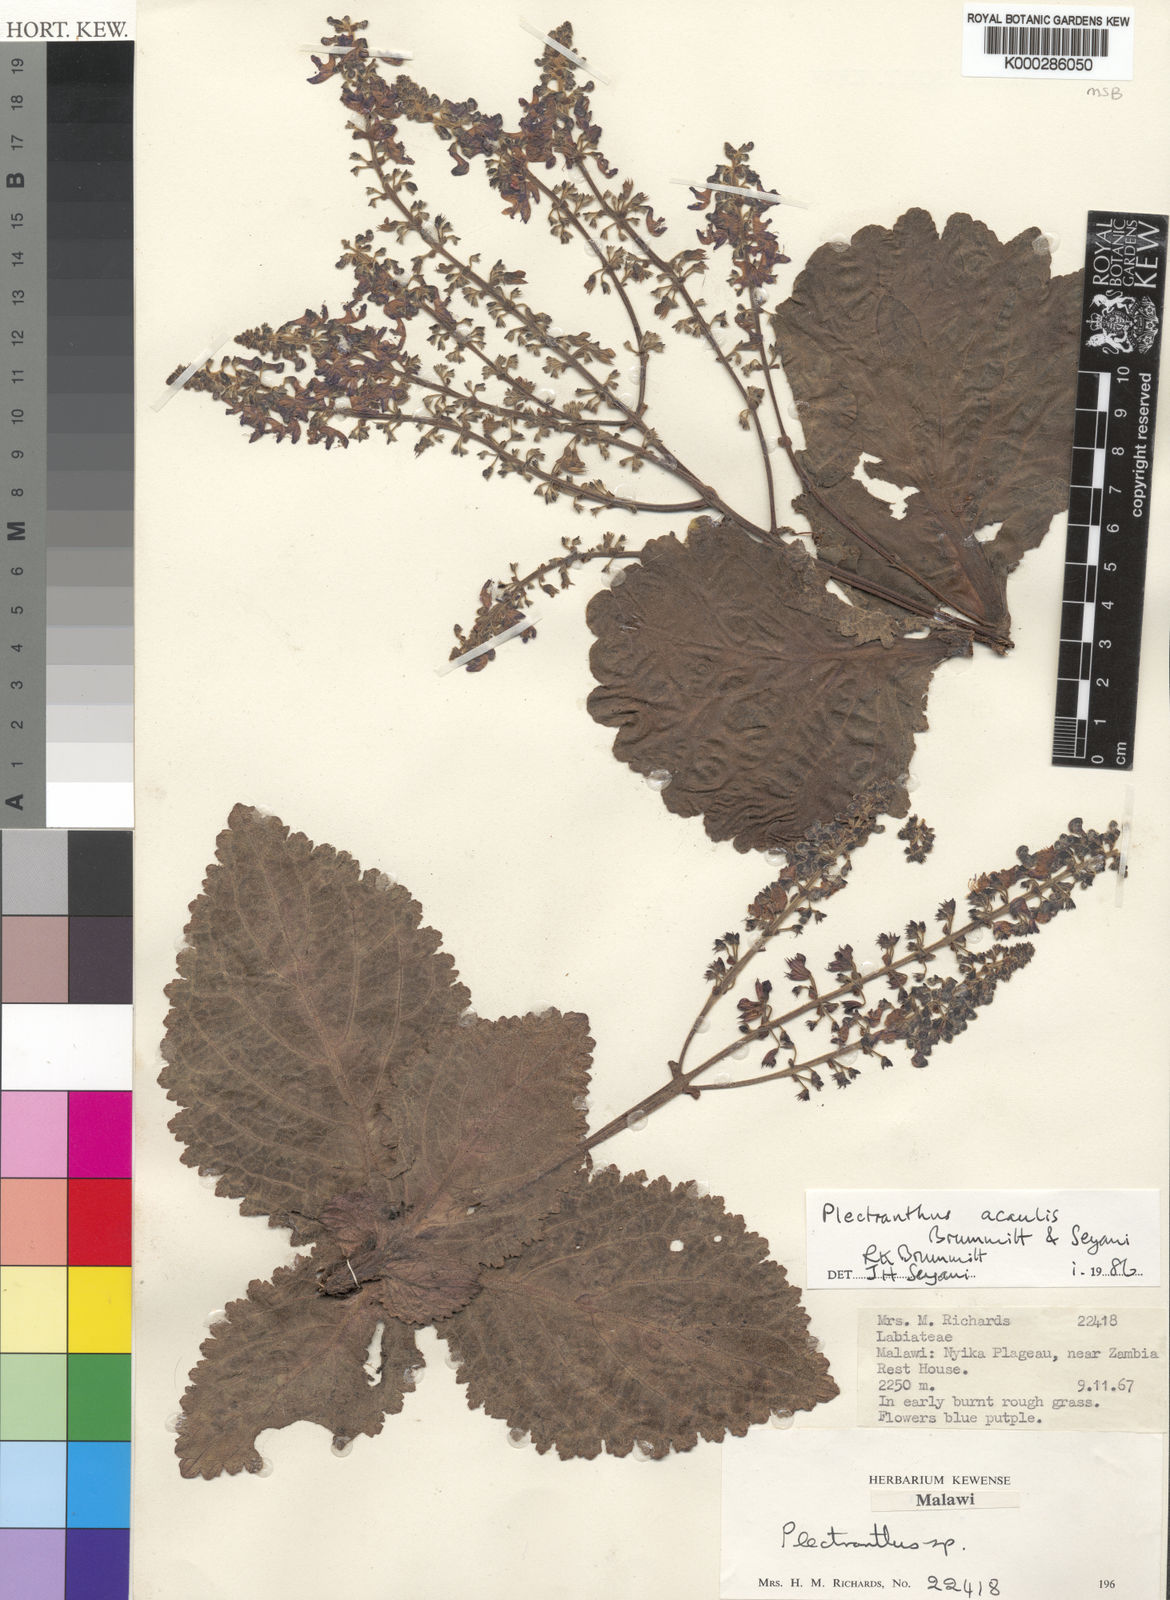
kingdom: Plantae
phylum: Tracheophyta
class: Magnoliopsida
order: Lamiales
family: Lamiaceae
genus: Equilabium
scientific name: Equilabium acaule
